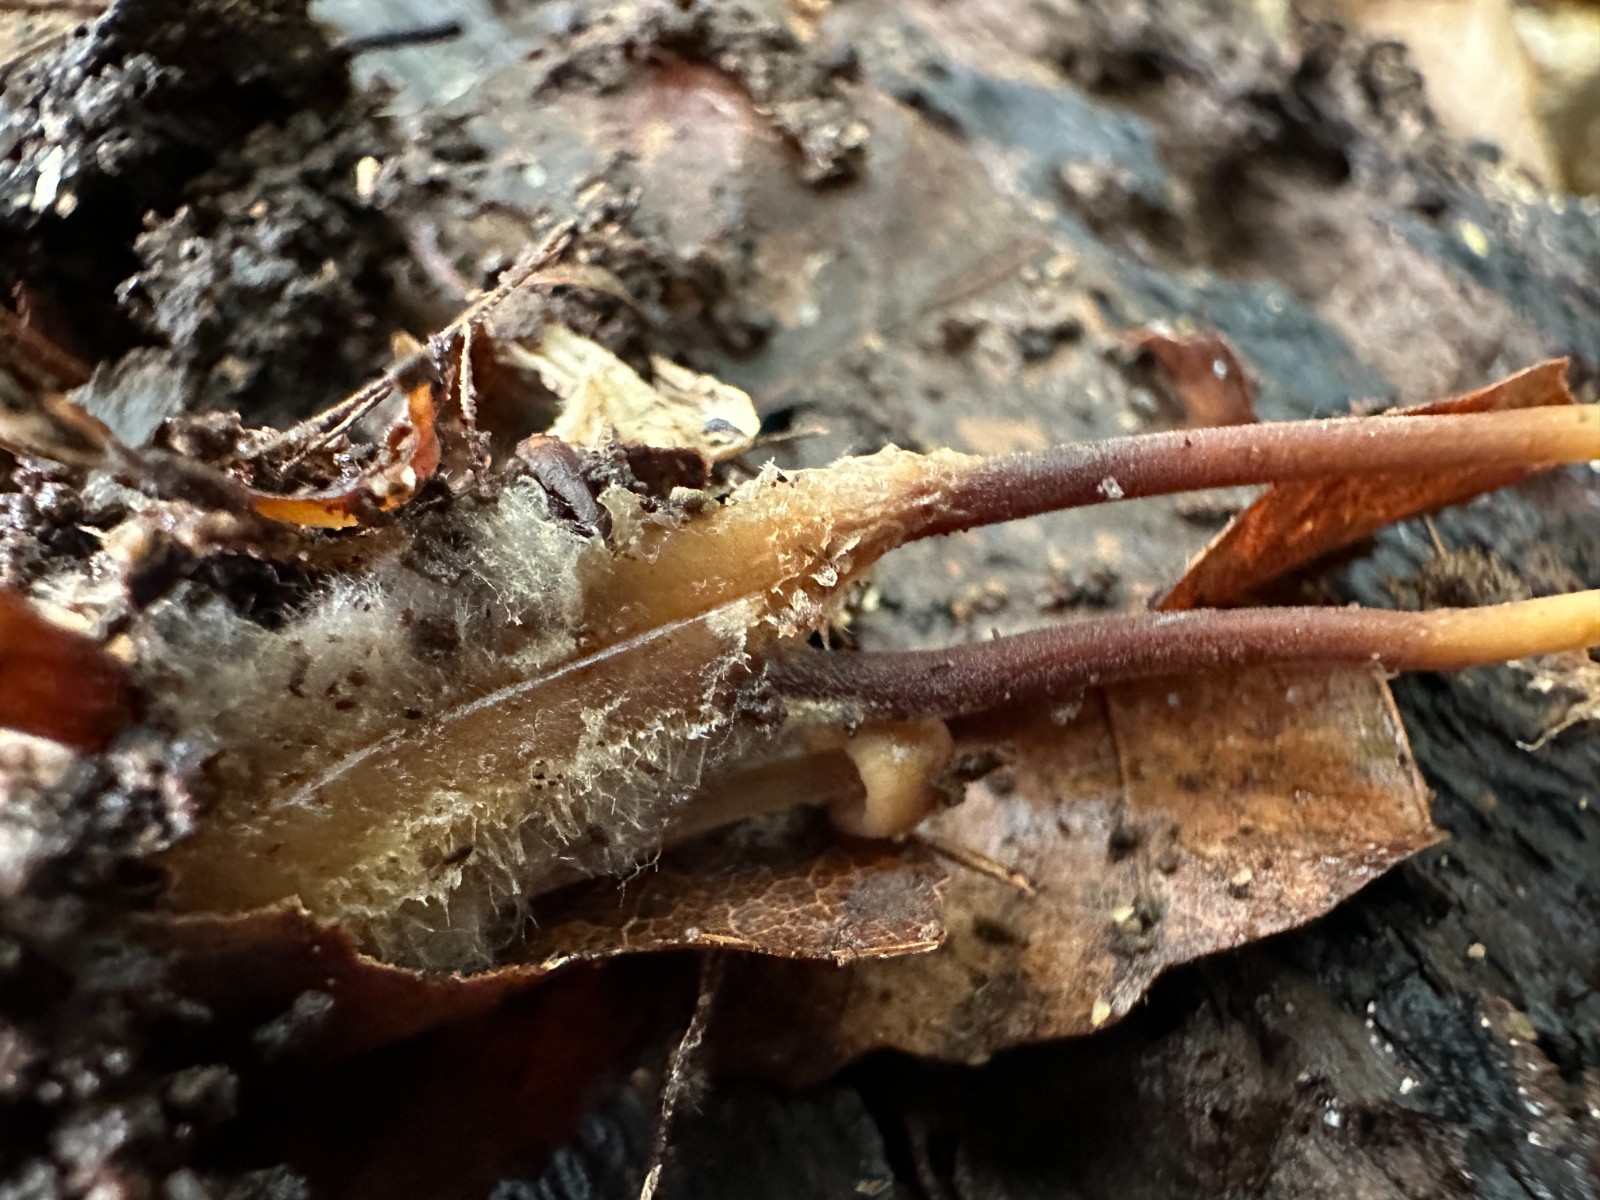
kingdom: Fungi
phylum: Basidiomycota
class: Agaricomycetes
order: Agaricales
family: Marasmiaceae
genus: Marasmius
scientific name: Marasmius torquescens
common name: filtfodet bruskhat
